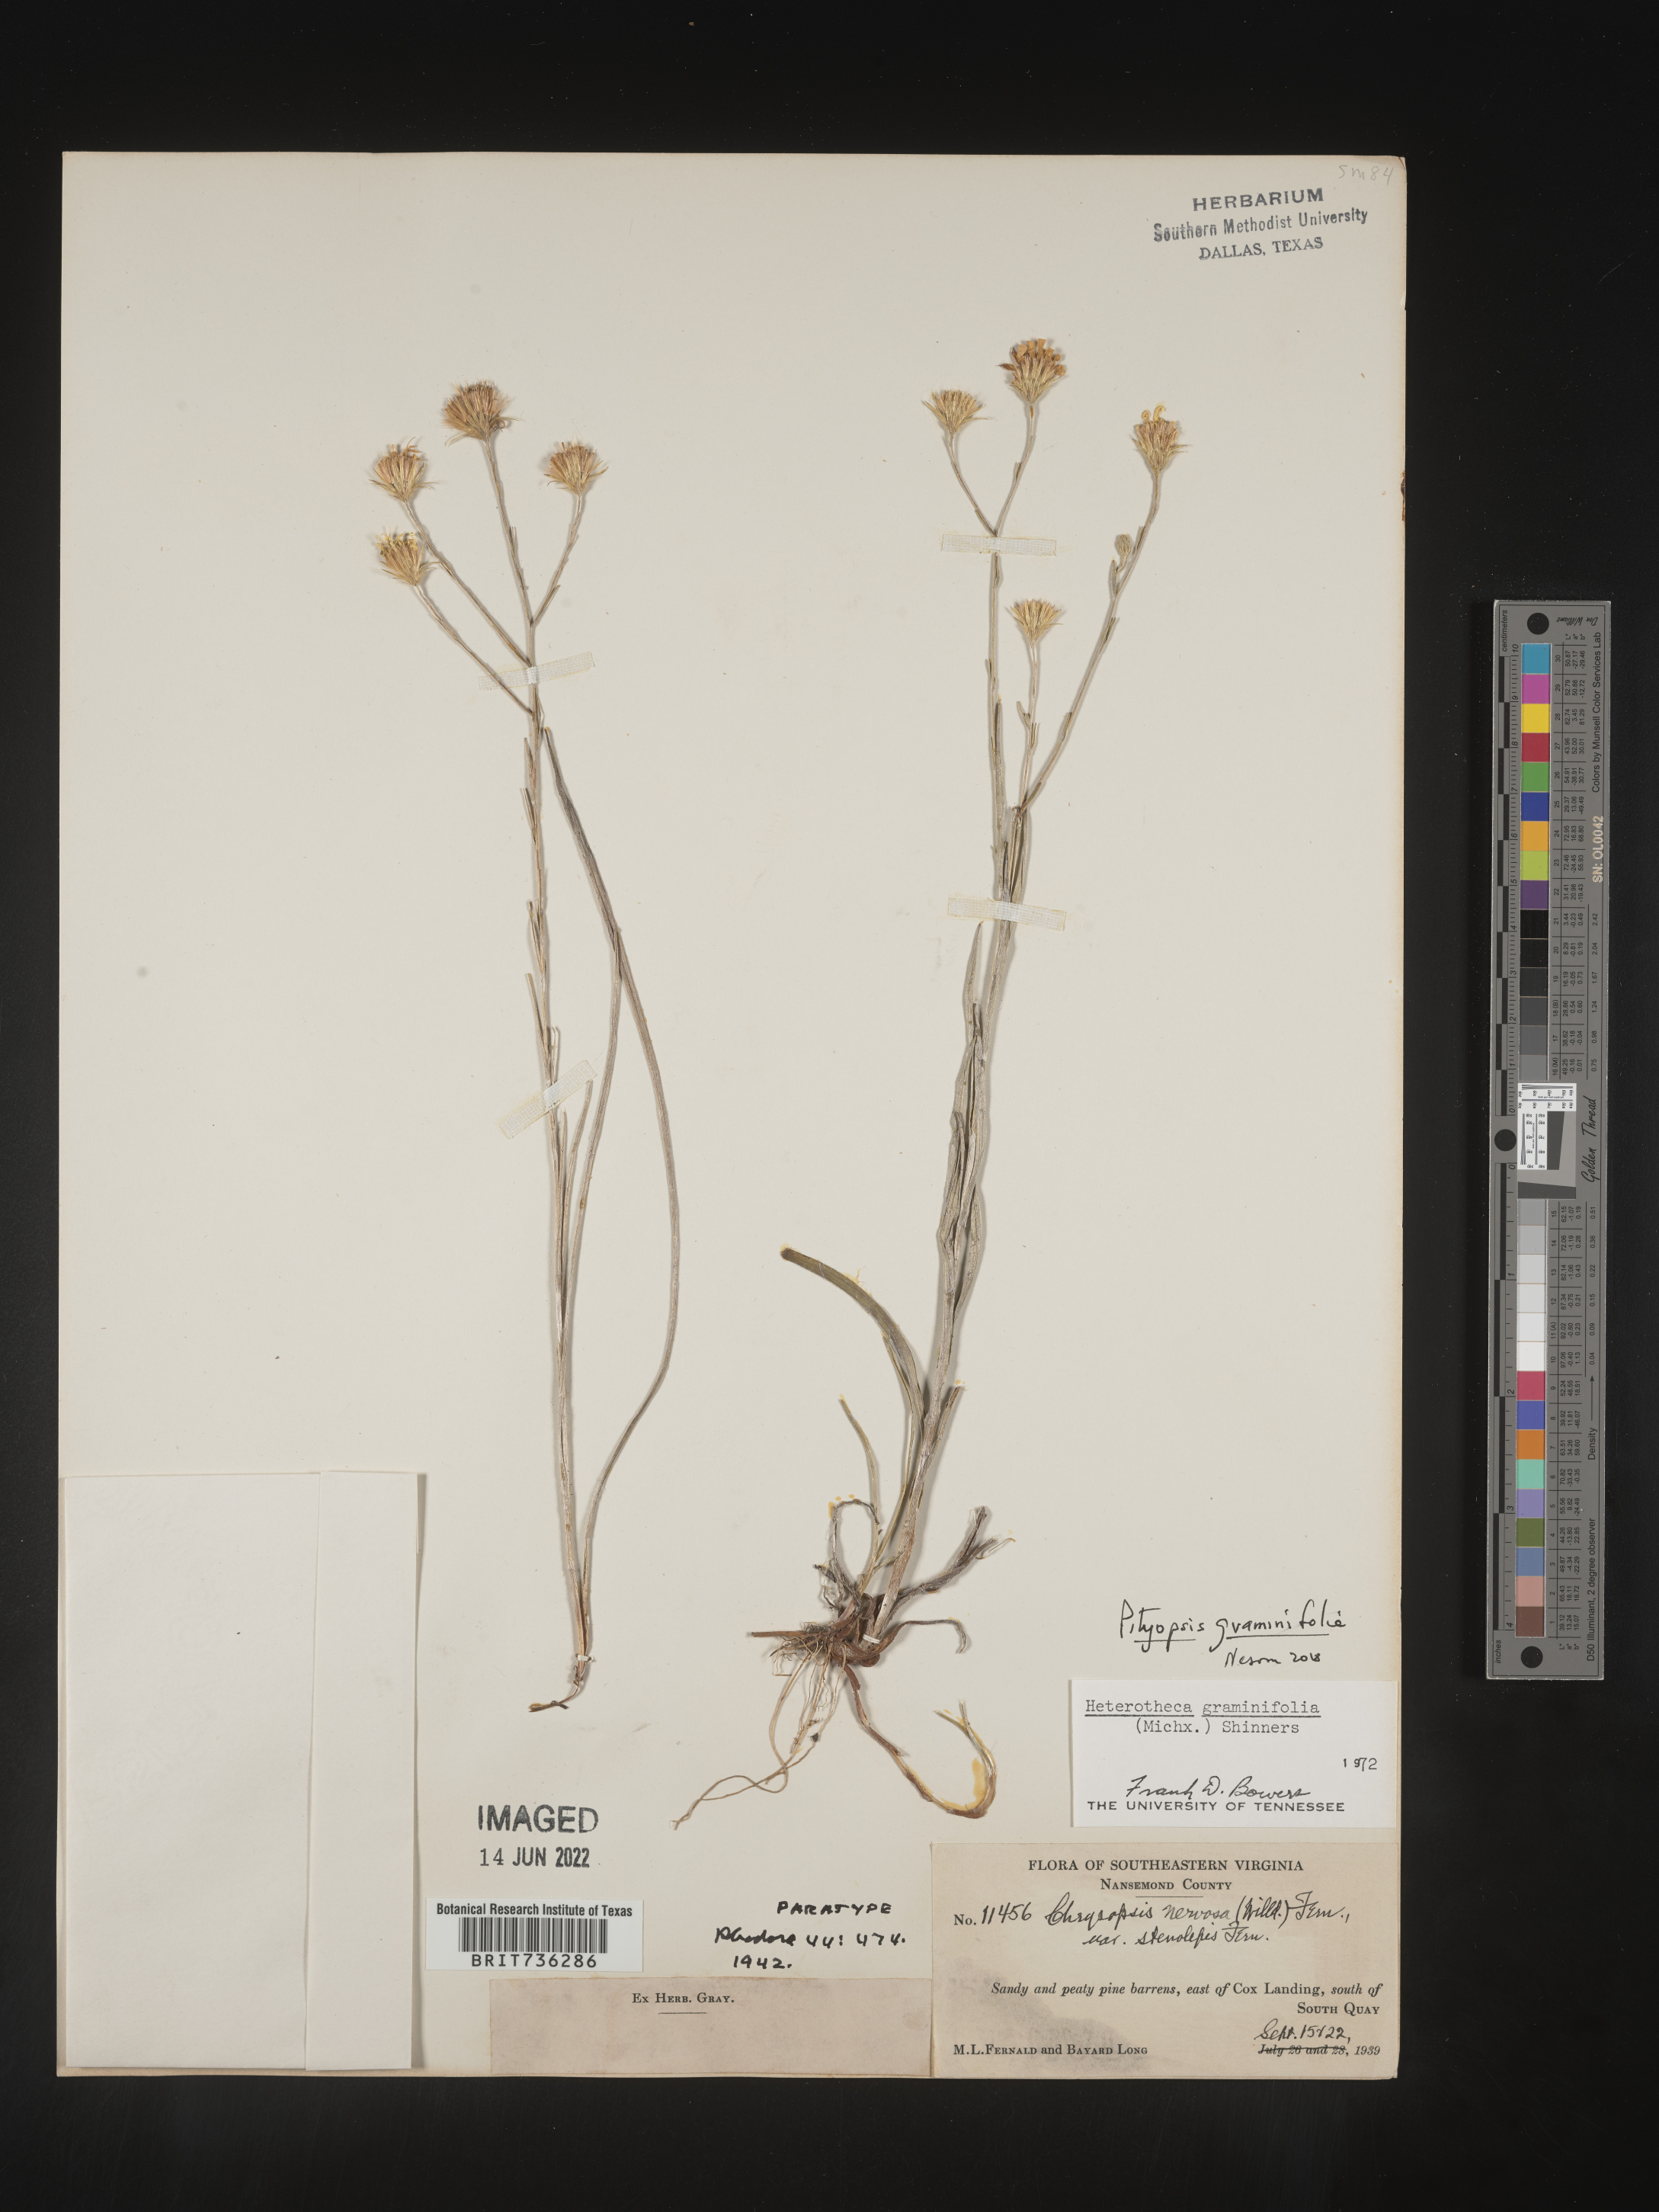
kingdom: Plantae
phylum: Tracheophyta
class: Magnoliopsida
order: Asterales
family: Asteraceae
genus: Pityopsis
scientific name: Pityopsis graminifolia
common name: Grass-leaf golden-aster
